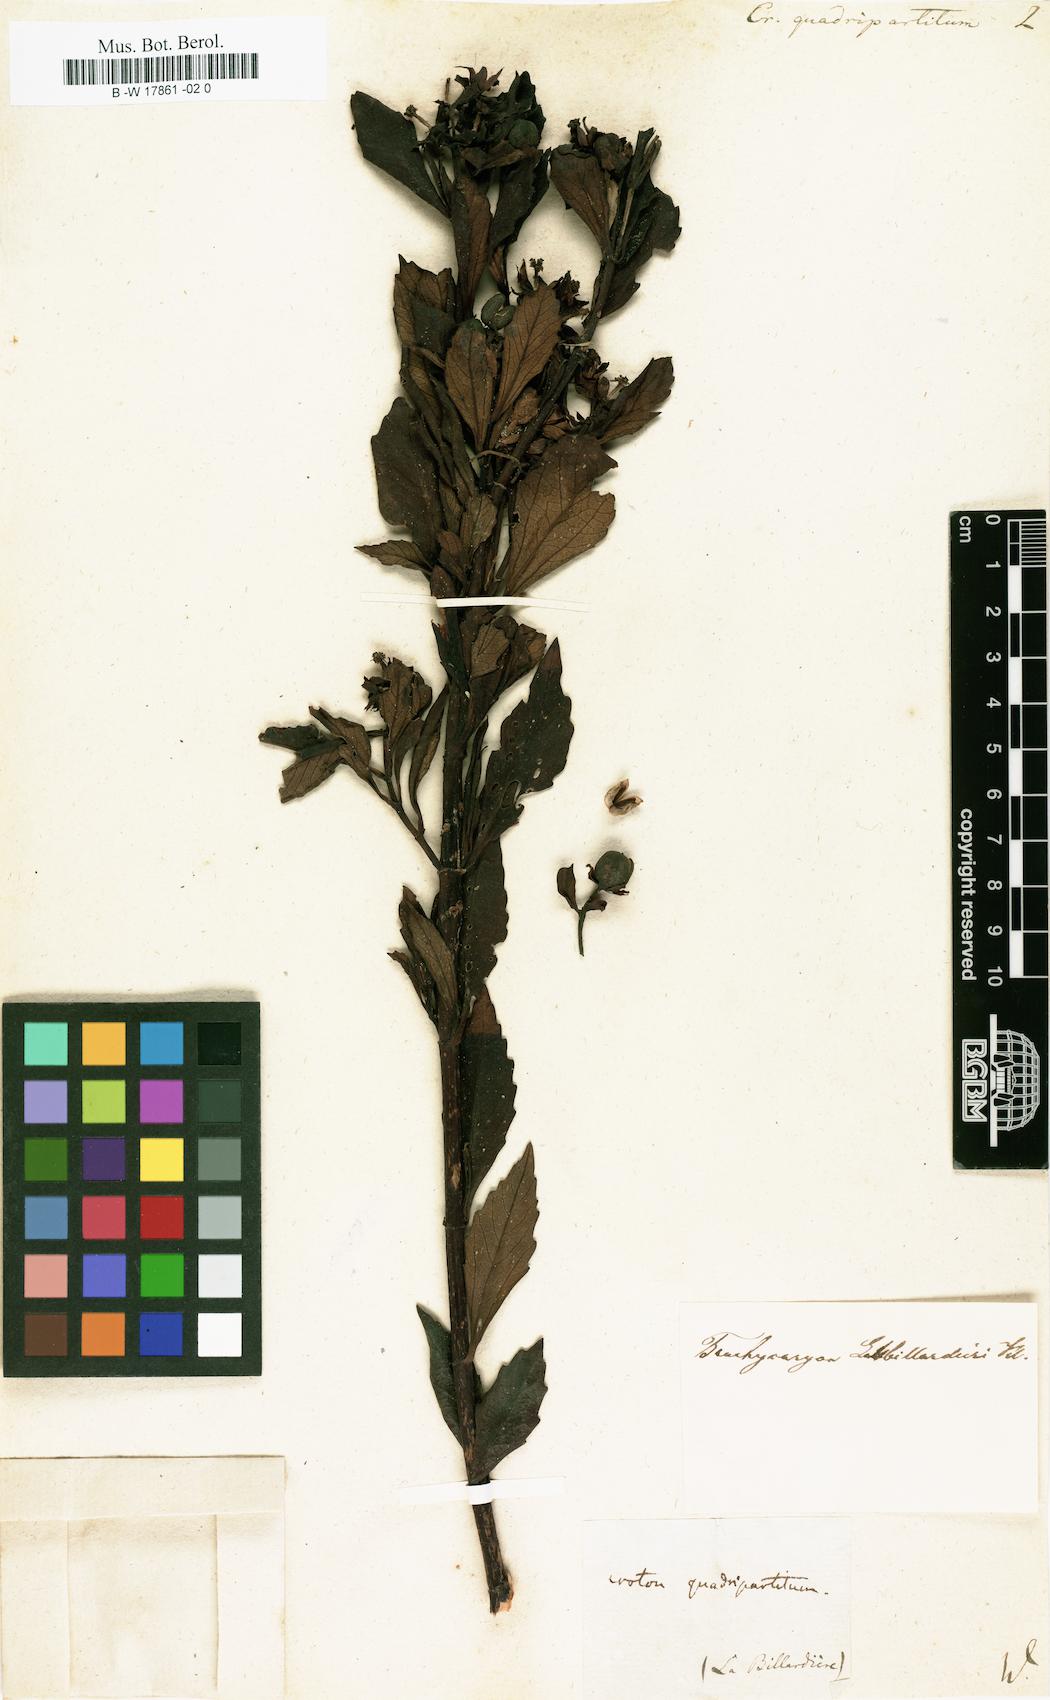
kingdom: Plantae
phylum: Tracheophyta
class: Magnoliopsida
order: Malpighiales
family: Euphorbiaceae
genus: Adriana
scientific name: Adriana quadripartita
